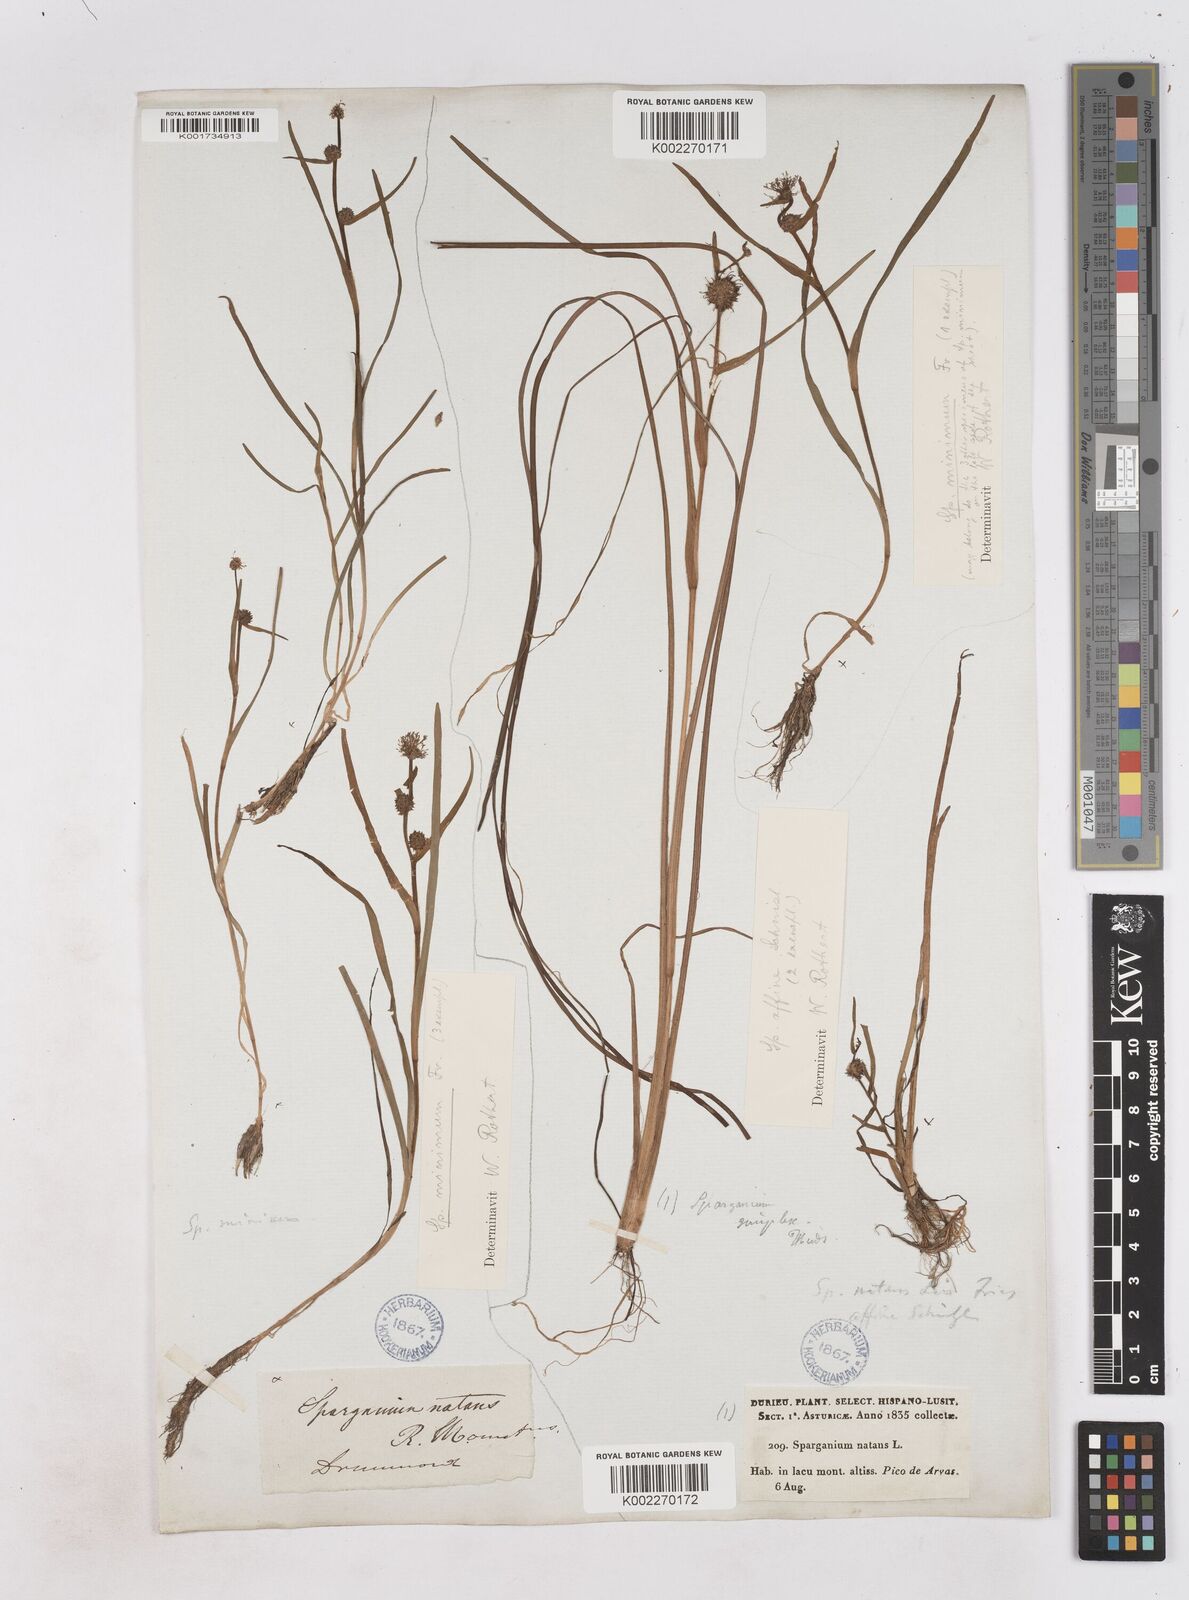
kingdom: Plantae
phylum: Tracheophyta
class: Liliopsida
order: Poales
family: Typhaceae
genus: Sparganium
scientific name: Sparganium natans
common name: Least bur-reed
